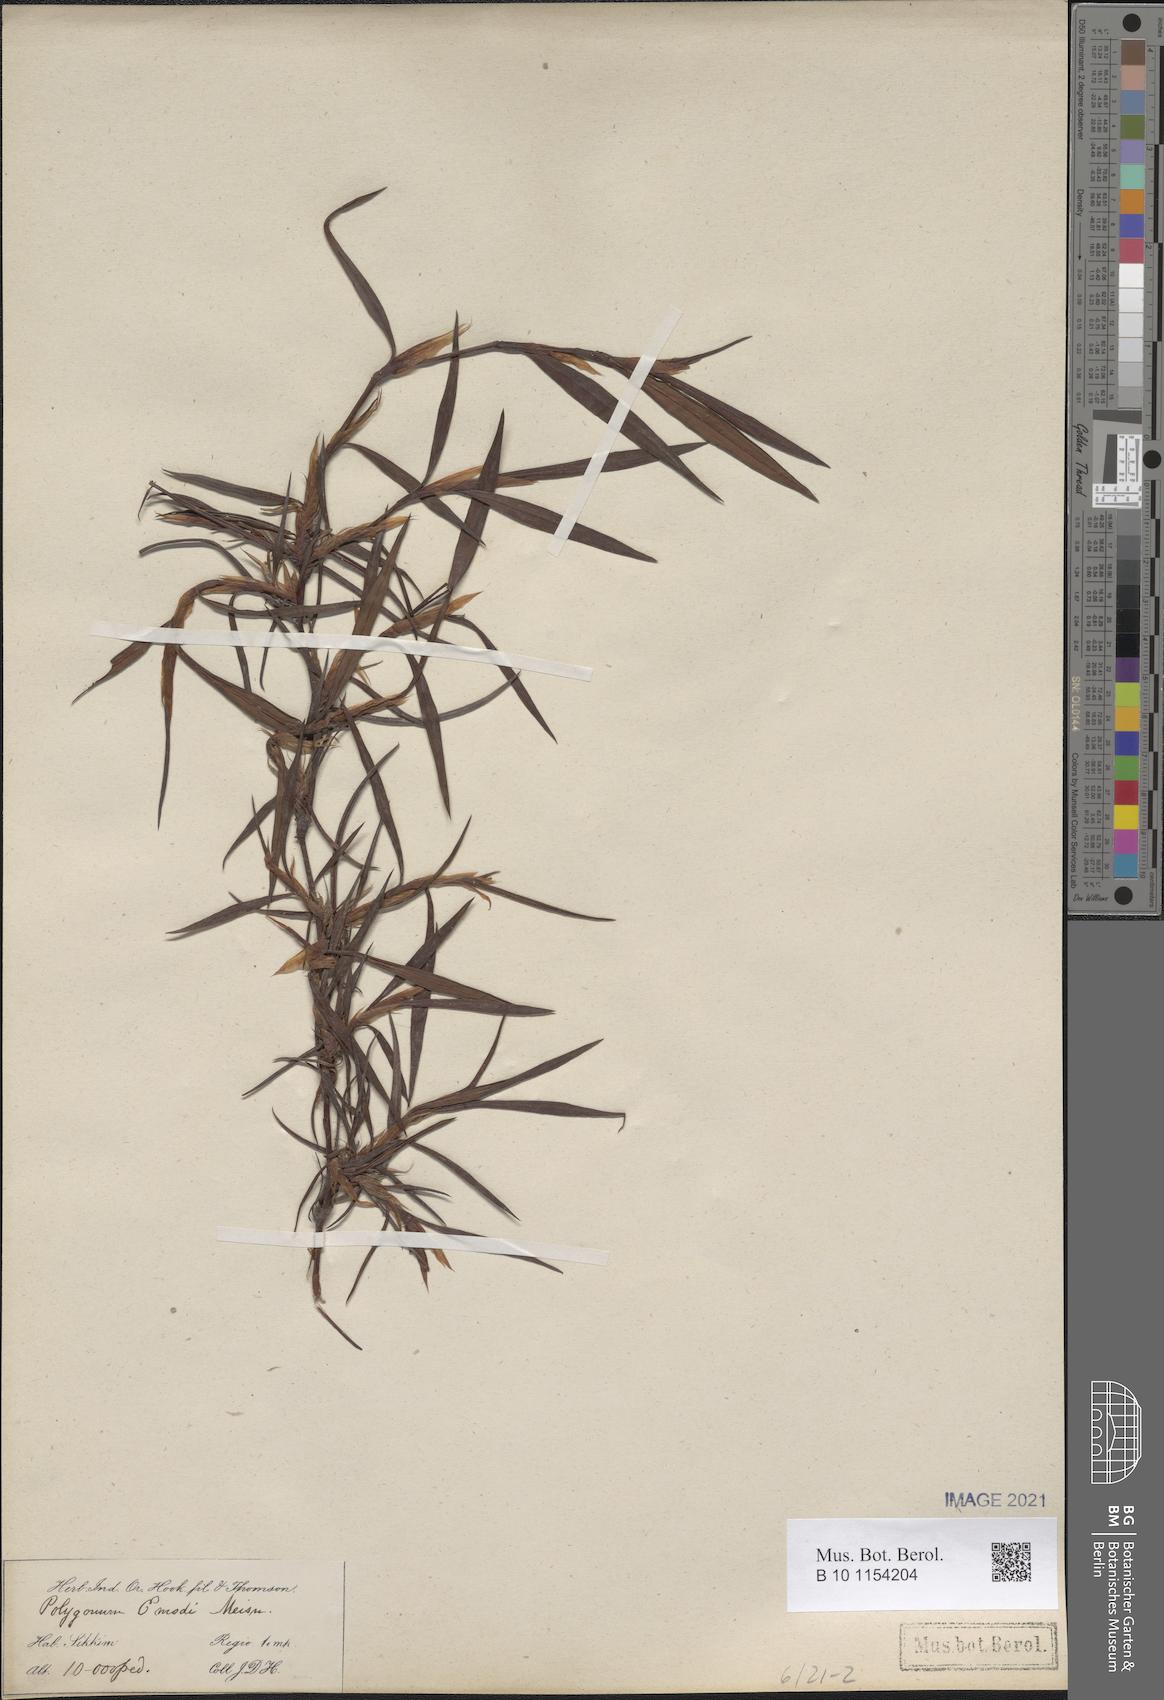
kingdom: Plantae
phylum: Tracheophyta
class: Magnoliopsida
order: Caryophyllales
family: Polygonaceae
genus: Bistorta
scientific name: Bistorta emodi
